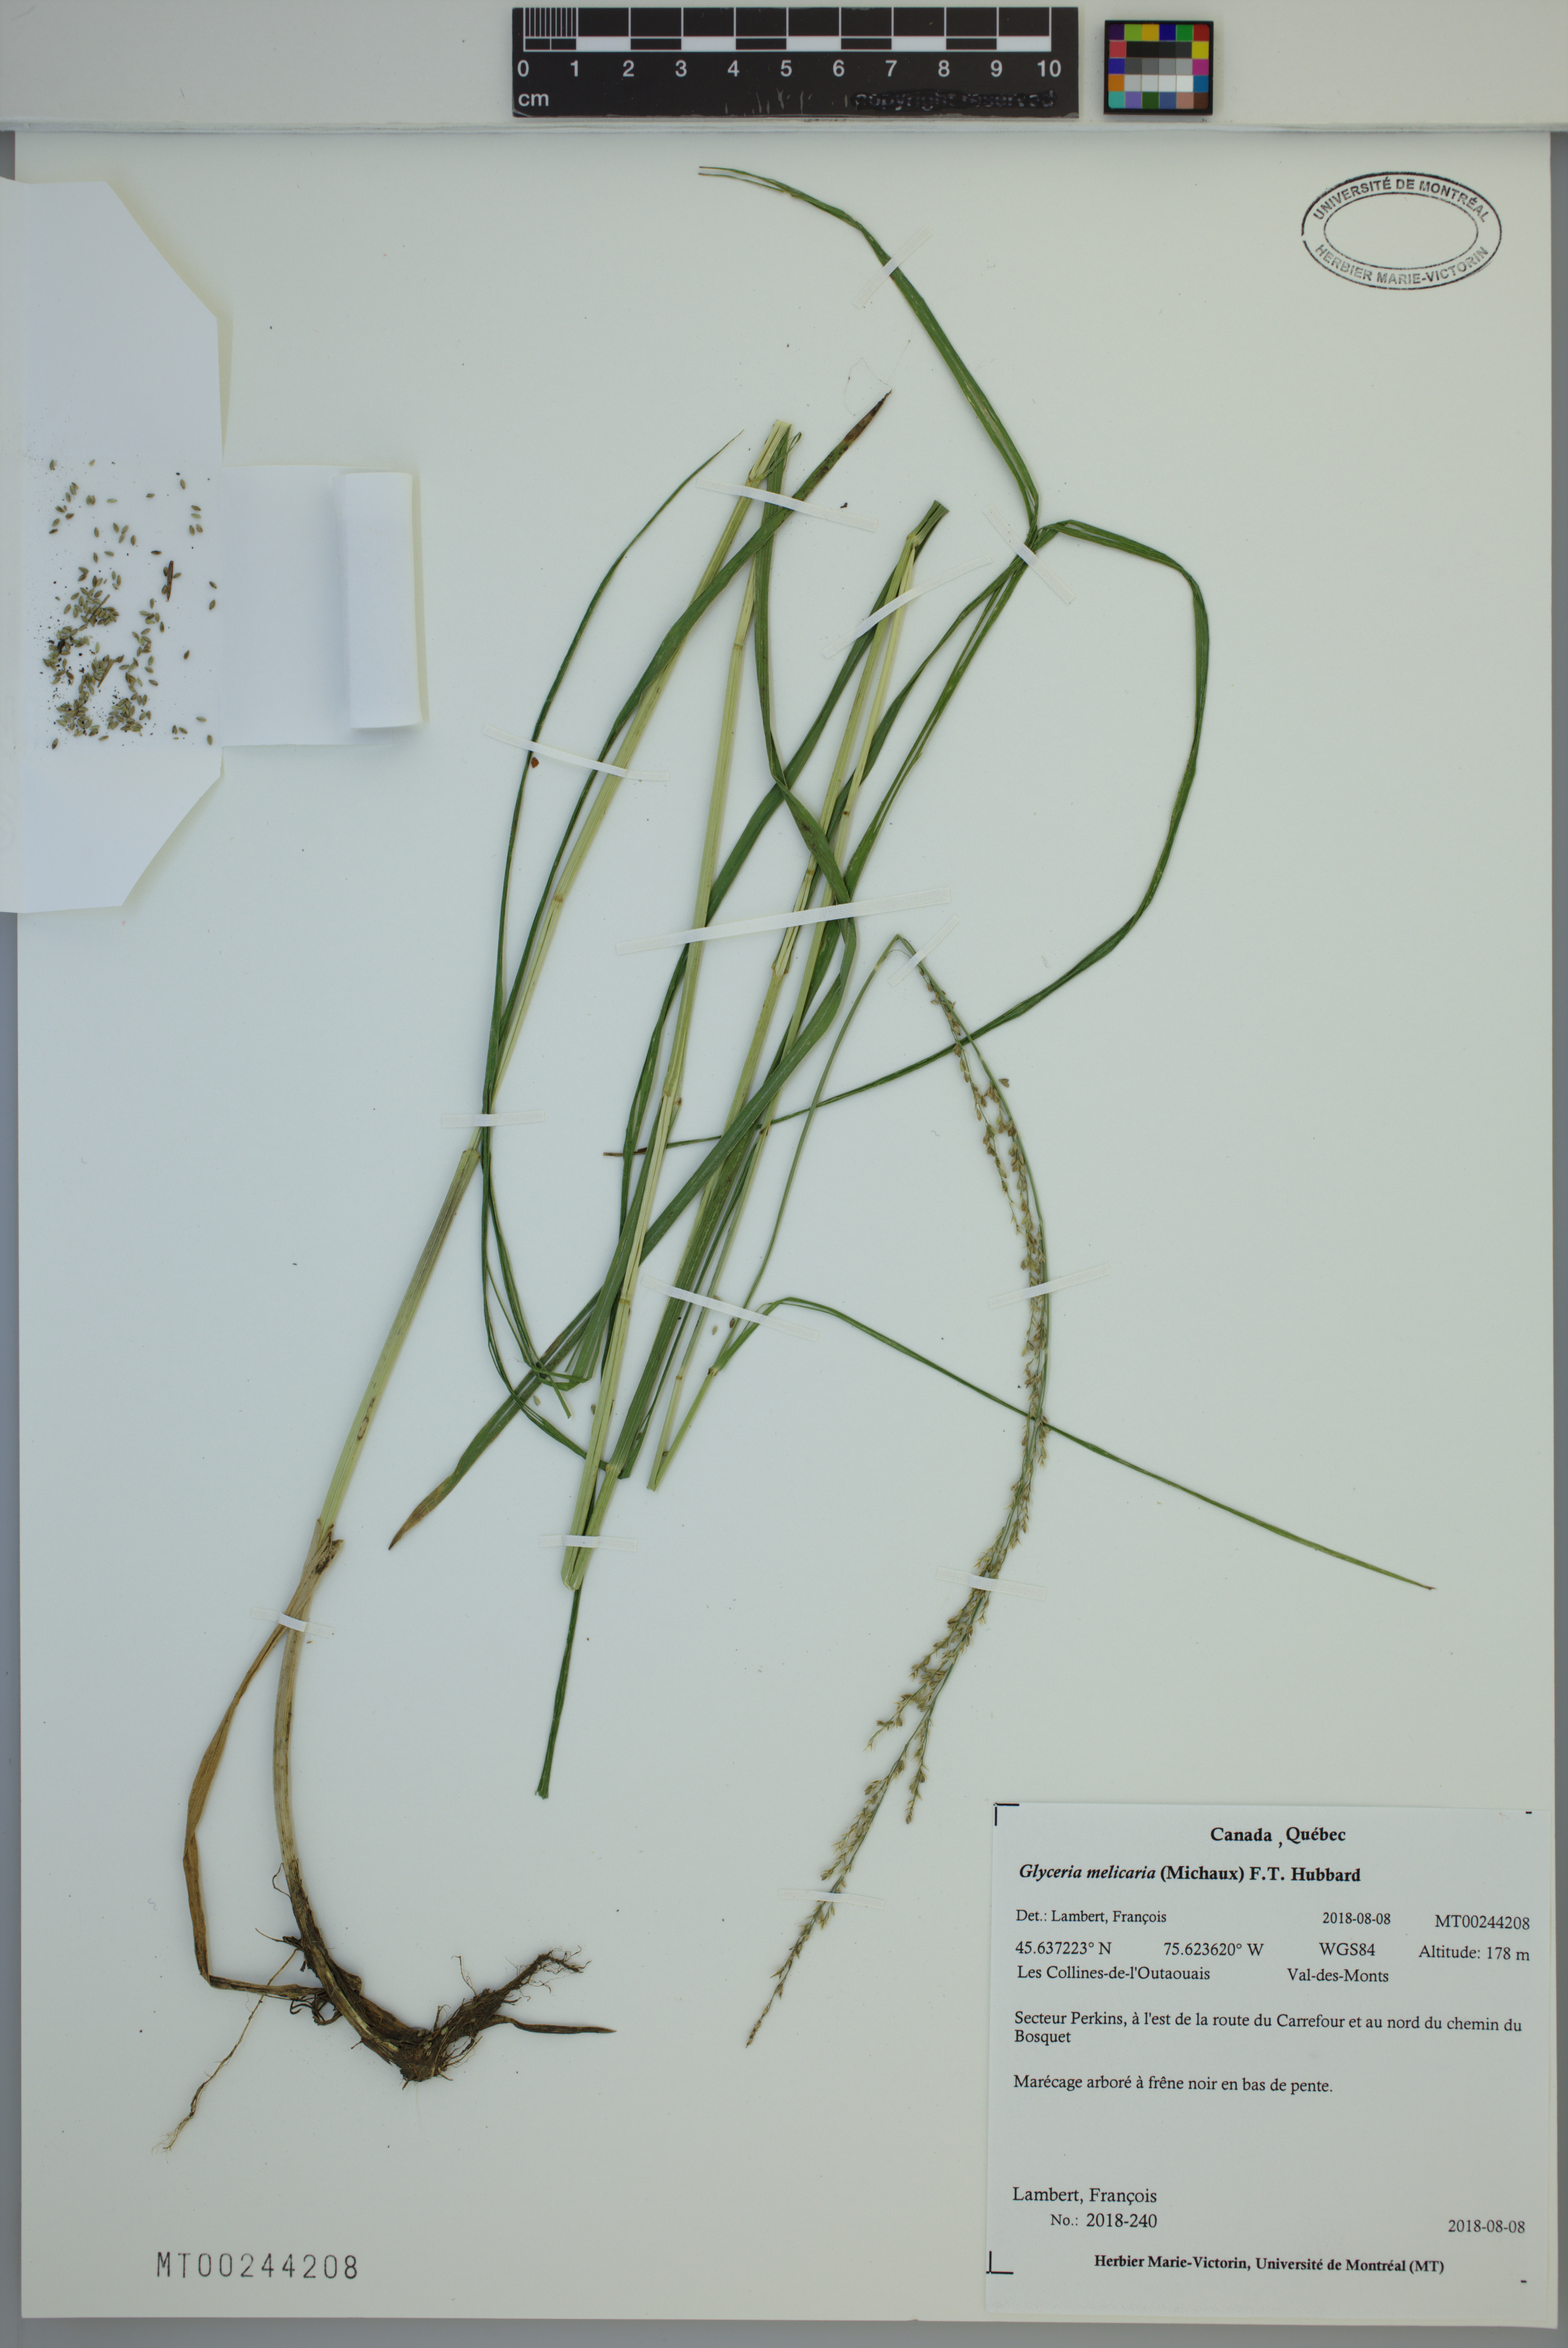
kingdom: Plantae
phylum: Tracheophyta
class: Liliopsida
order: Poales
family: Poaceae
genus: Glyceria
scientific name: Glyceria melicaria
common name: Long mannagrass
